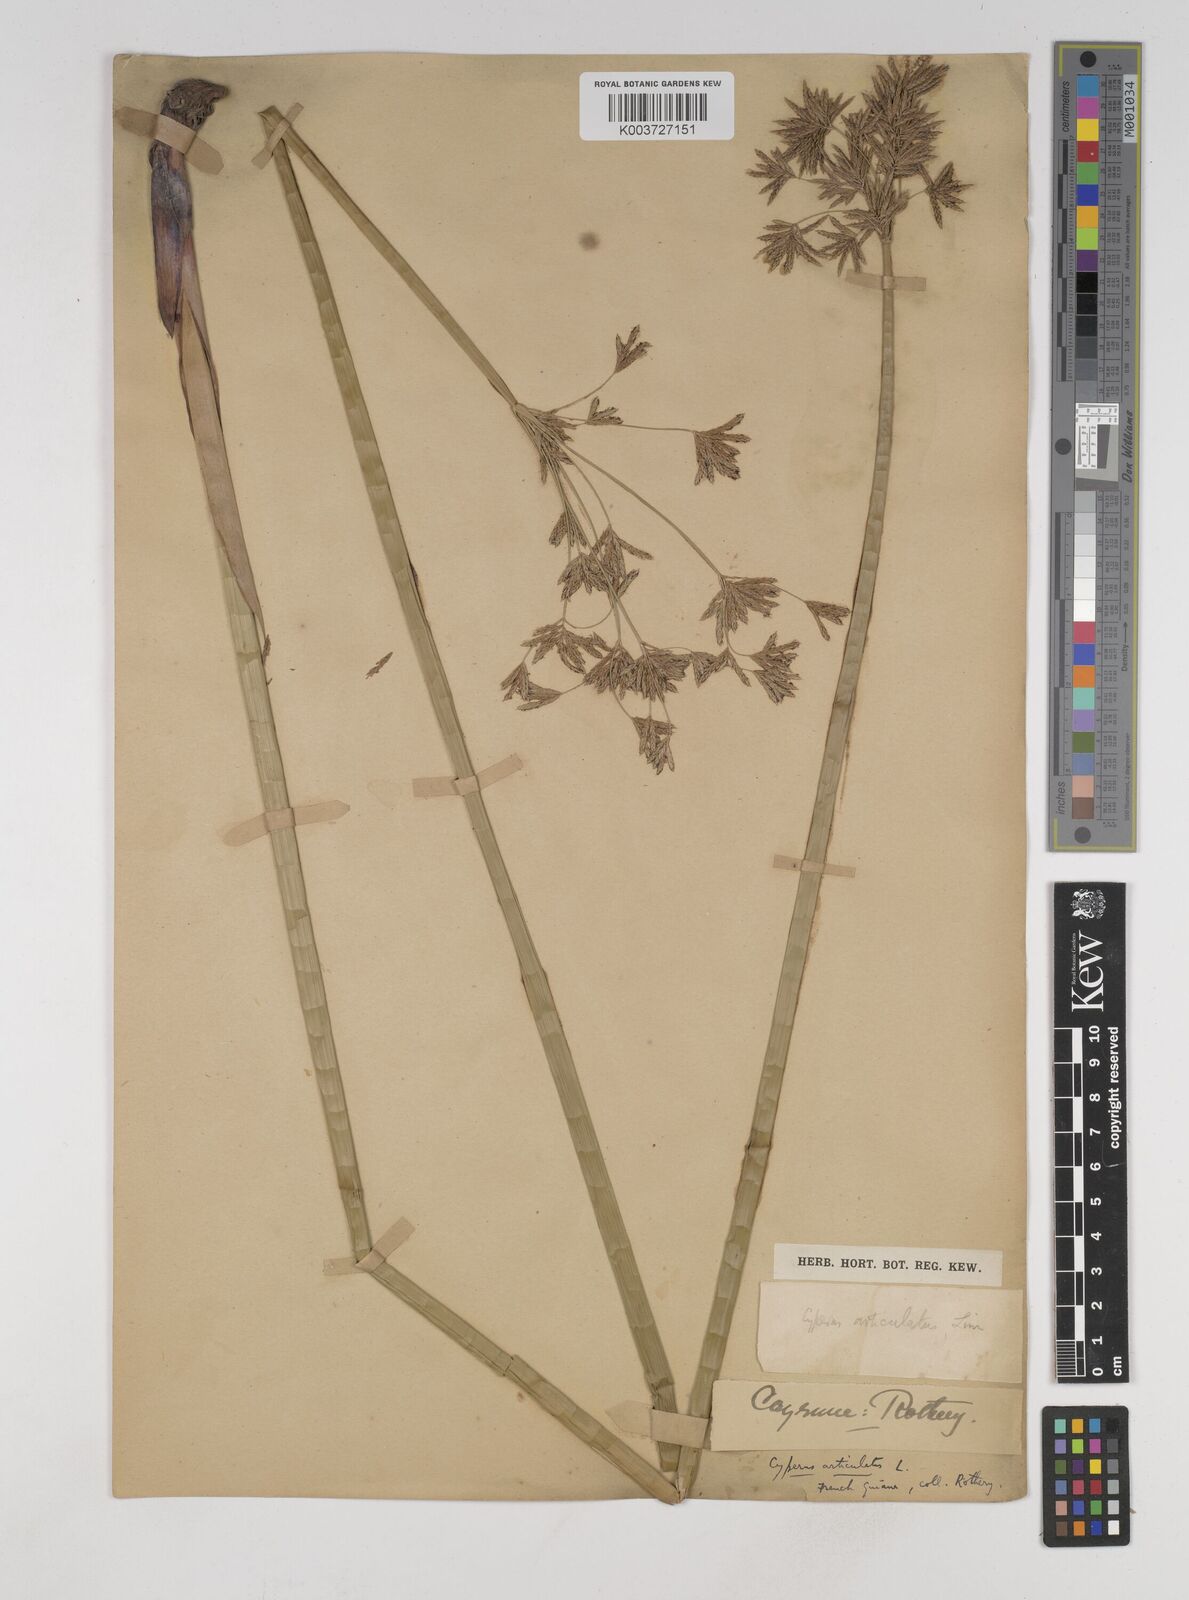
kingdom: Plantae
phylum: Tracheophyta
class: Liliopsida
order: Poales
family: Cyperaceae
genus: Cyperus
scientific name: Cyperus articulatus
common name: Jointed flatsedge
